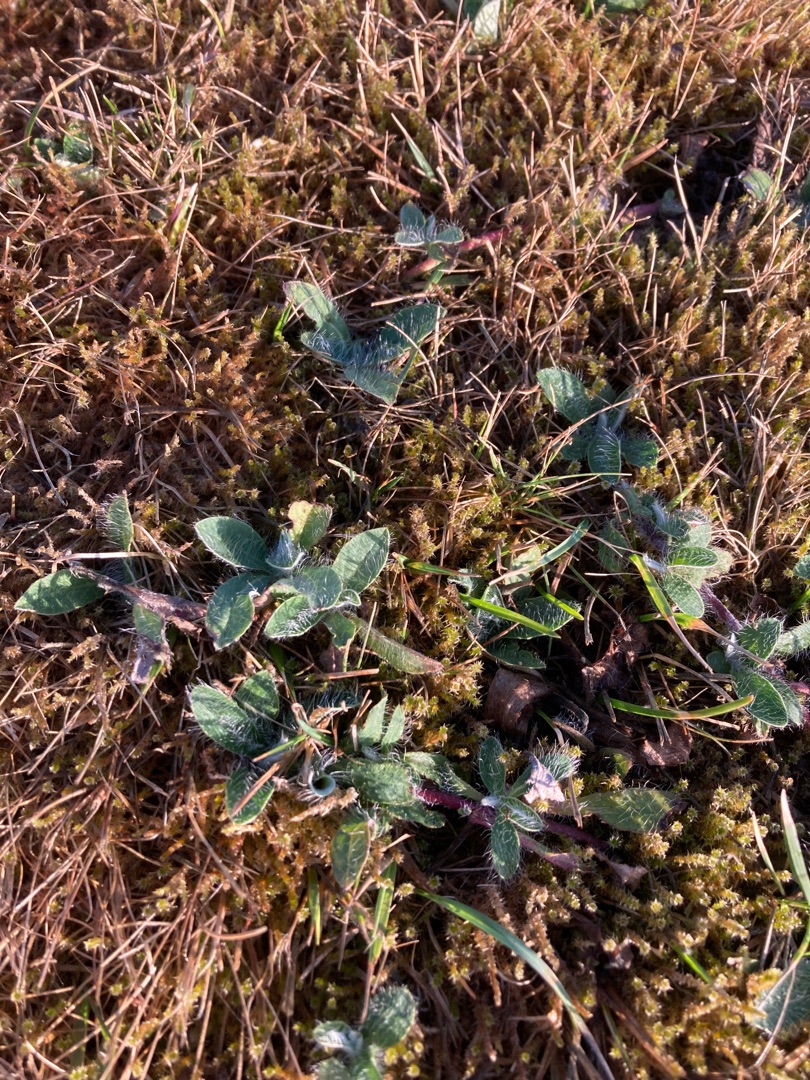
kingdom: Plantae
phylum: Tracheophyta
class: Magnoliopsida
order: Asterales
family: Asteraceae
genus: Pilosella
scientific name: Pilosella officinarum
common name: Håret høgeurt
